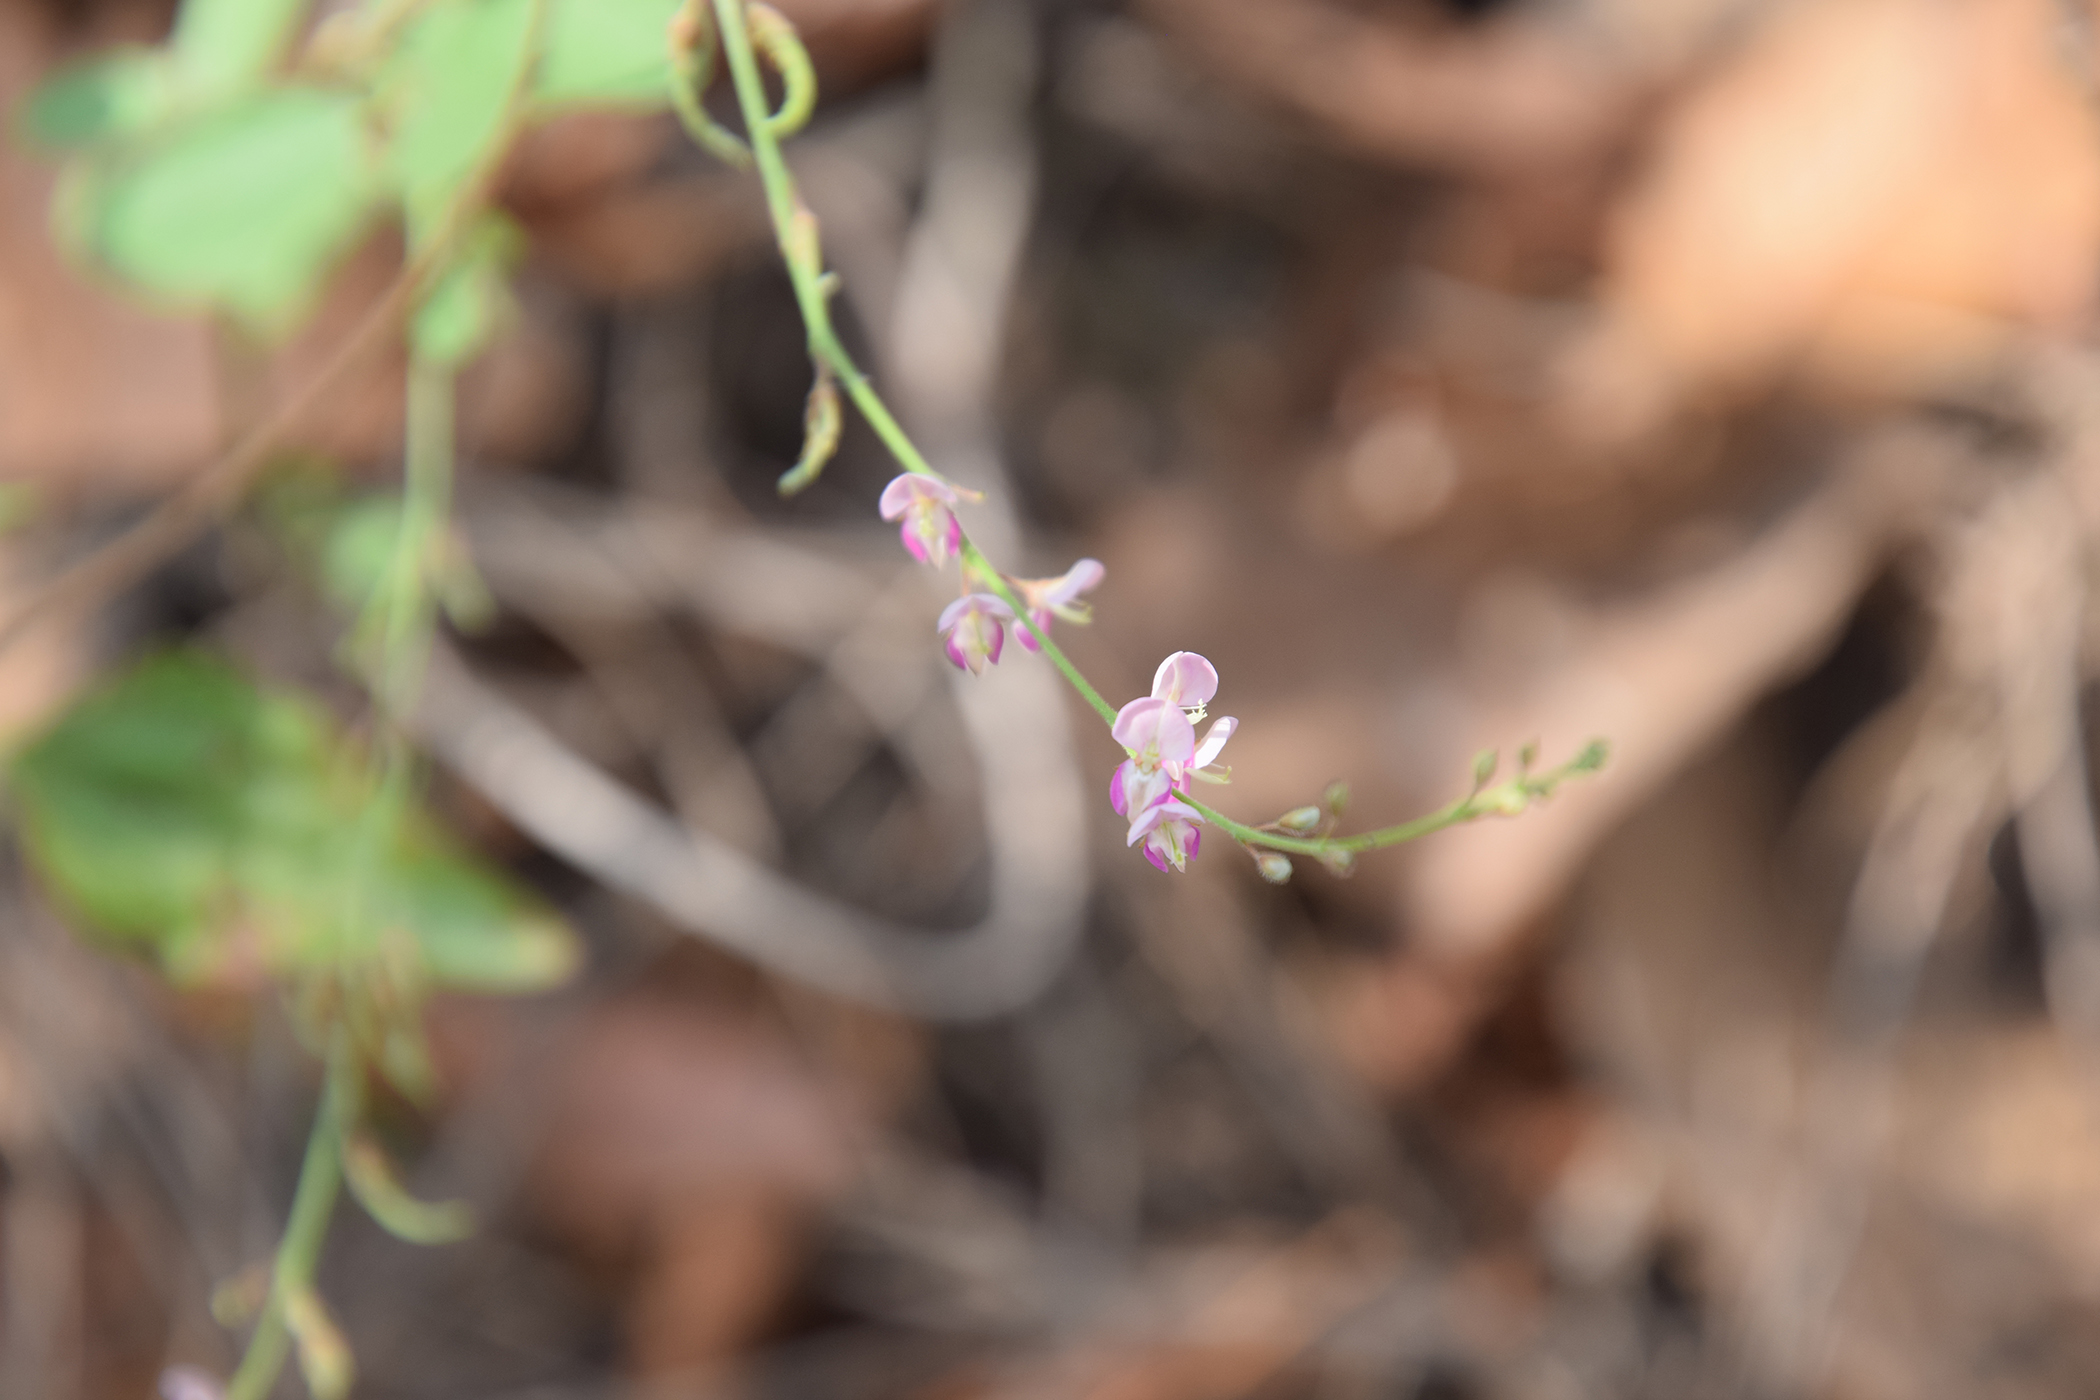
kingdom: Plantae
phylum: Tracheophyta
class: Magnoliopsida
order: Fabales
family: Fabaceae
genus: Pleurolobus
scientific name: Pleurolobus gangeticus
